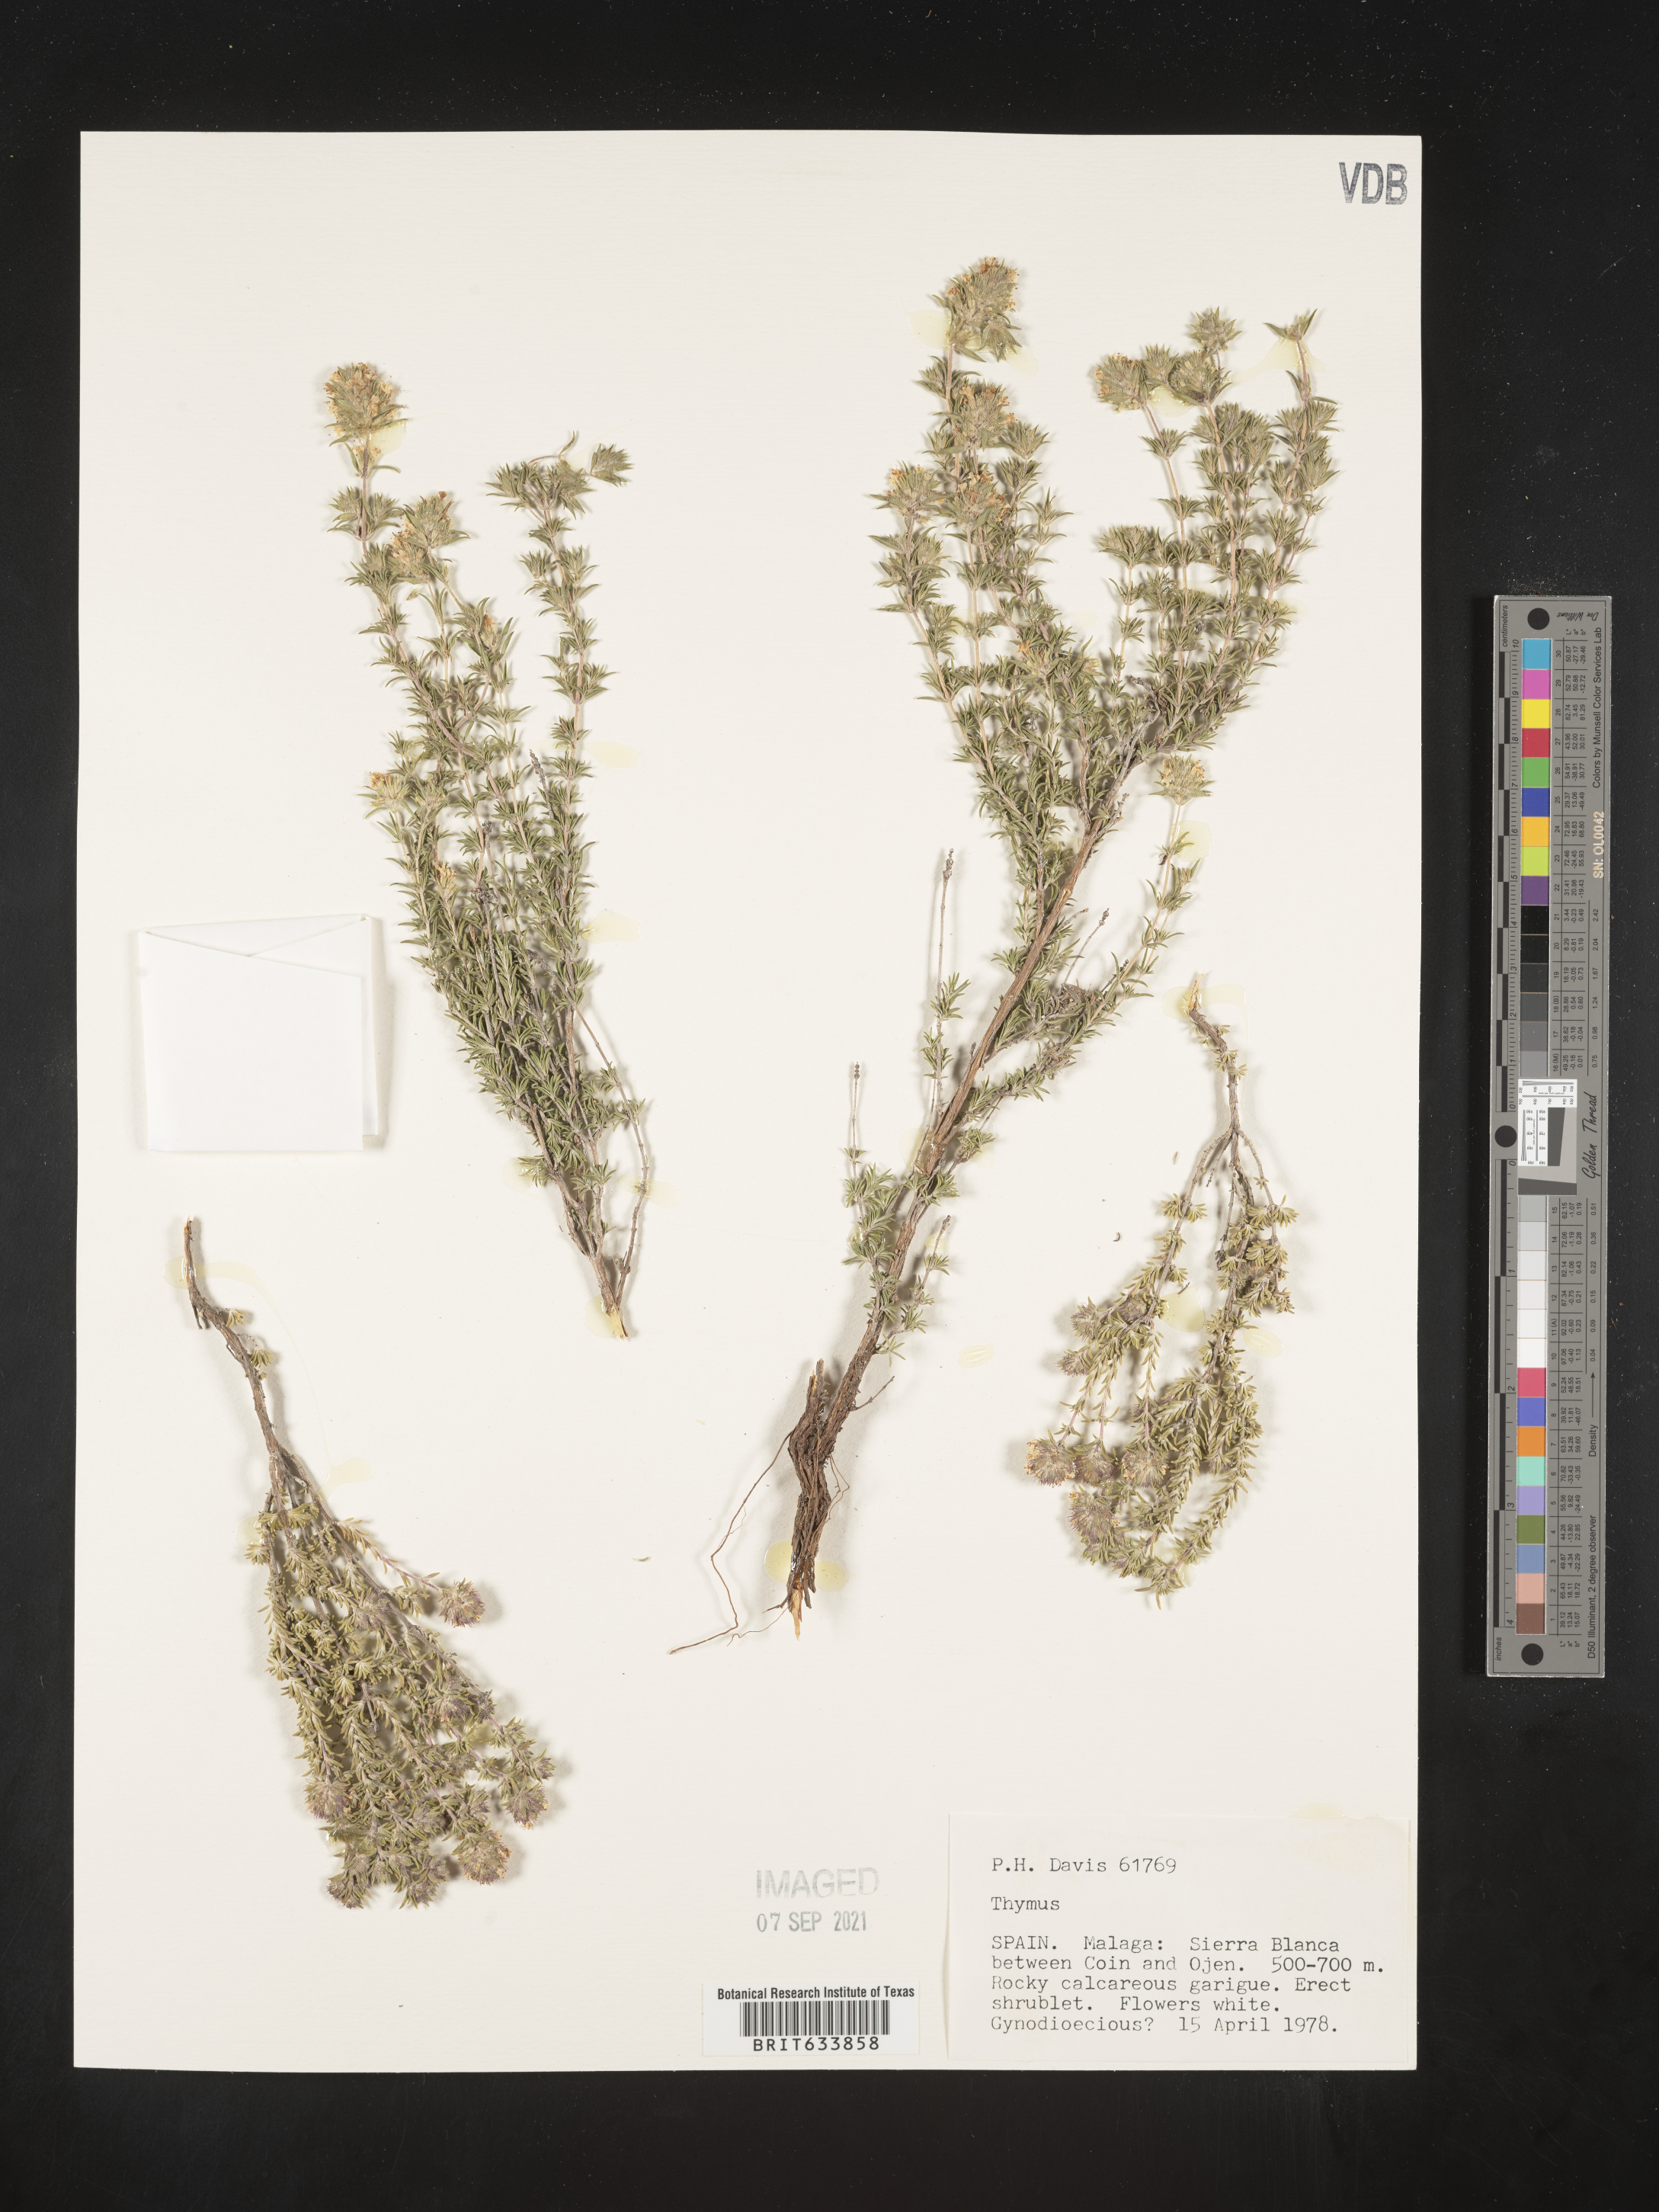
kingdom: Plantae
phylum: Tracheophyta
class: Magnoliopsida
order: Lamiales
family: Lamiaceae
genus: Thymus
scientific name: Thymus
